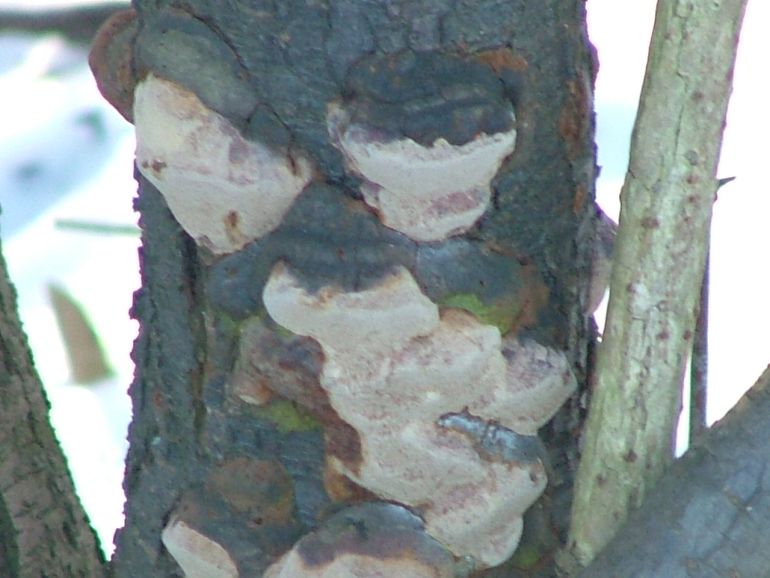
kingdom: Fungi
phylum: Basidiomycota
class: Agaricomycetes
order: Hymenochaetales
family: Hymenochaetaceae
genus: Phellinus
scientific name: Phellinus pomaceus
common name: blomme-ildporesvamp
